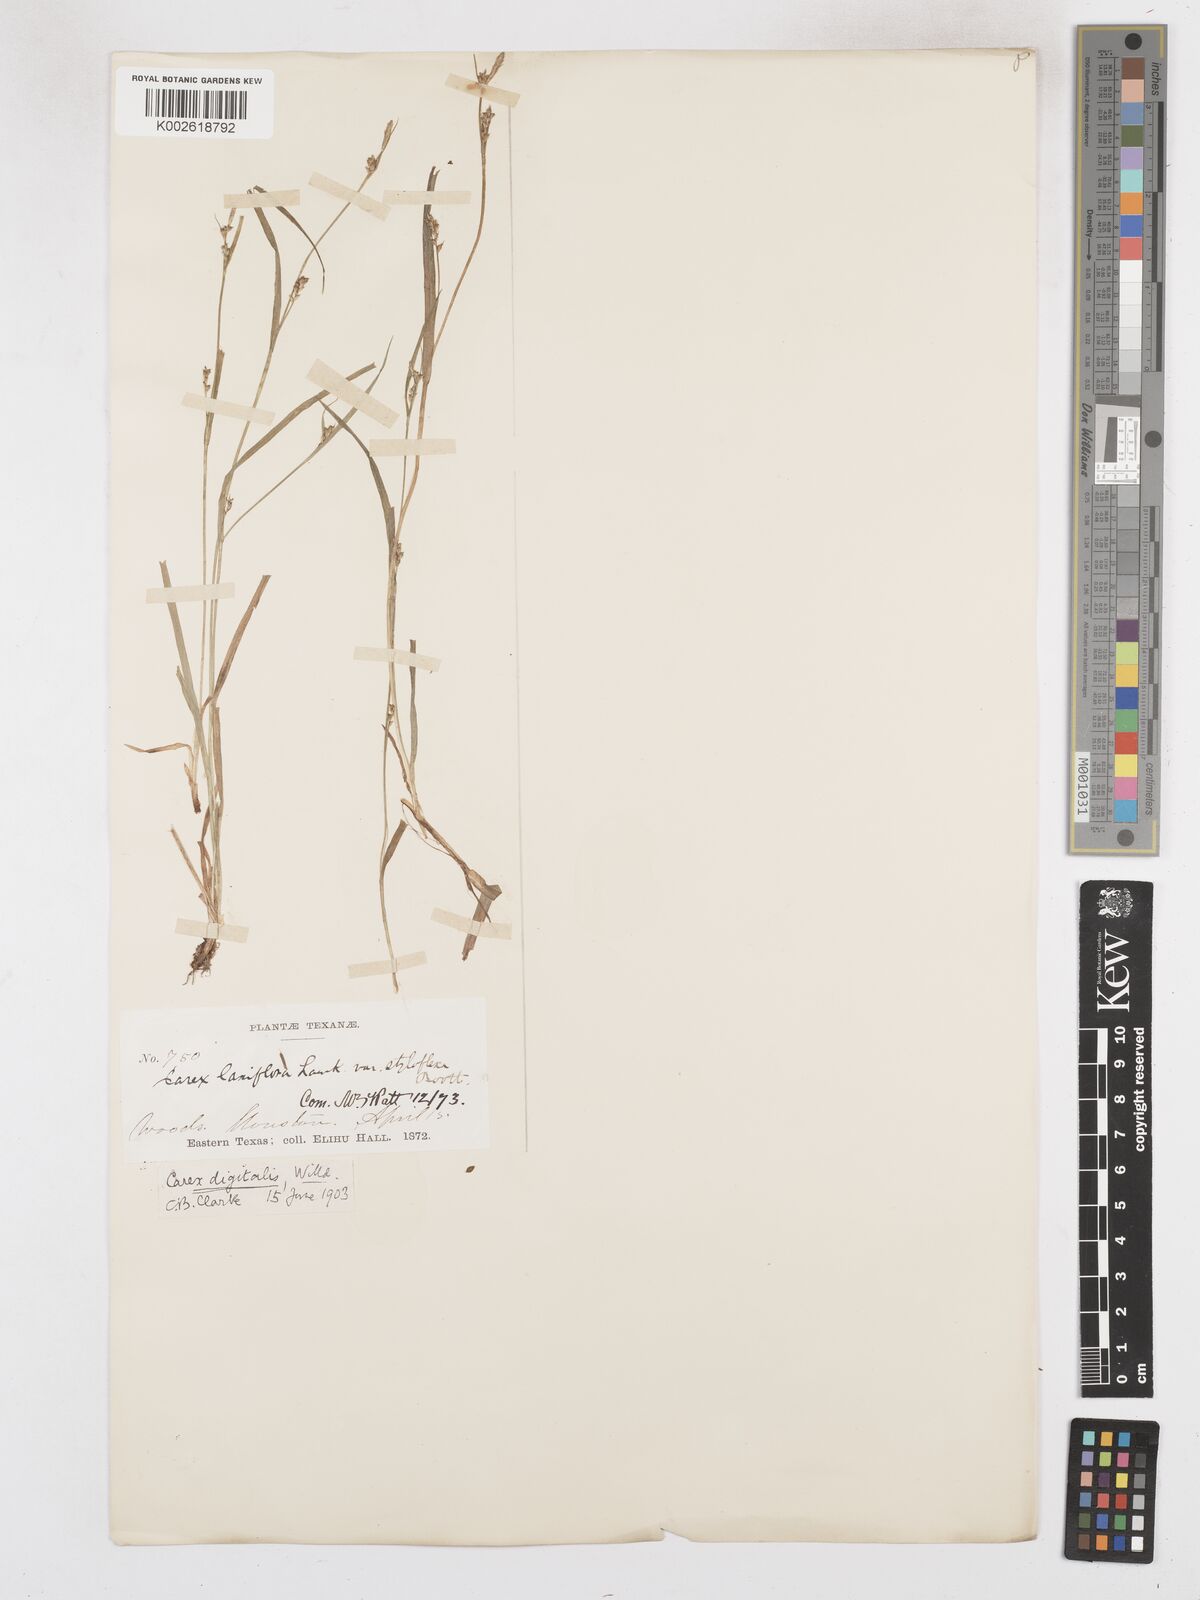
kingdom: Plantae
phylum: Tracheophyta
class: Liliopsida
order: Poales
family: Cyperaceae
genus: Carex
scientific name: Carex digitalis
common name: Slender wood sedge
